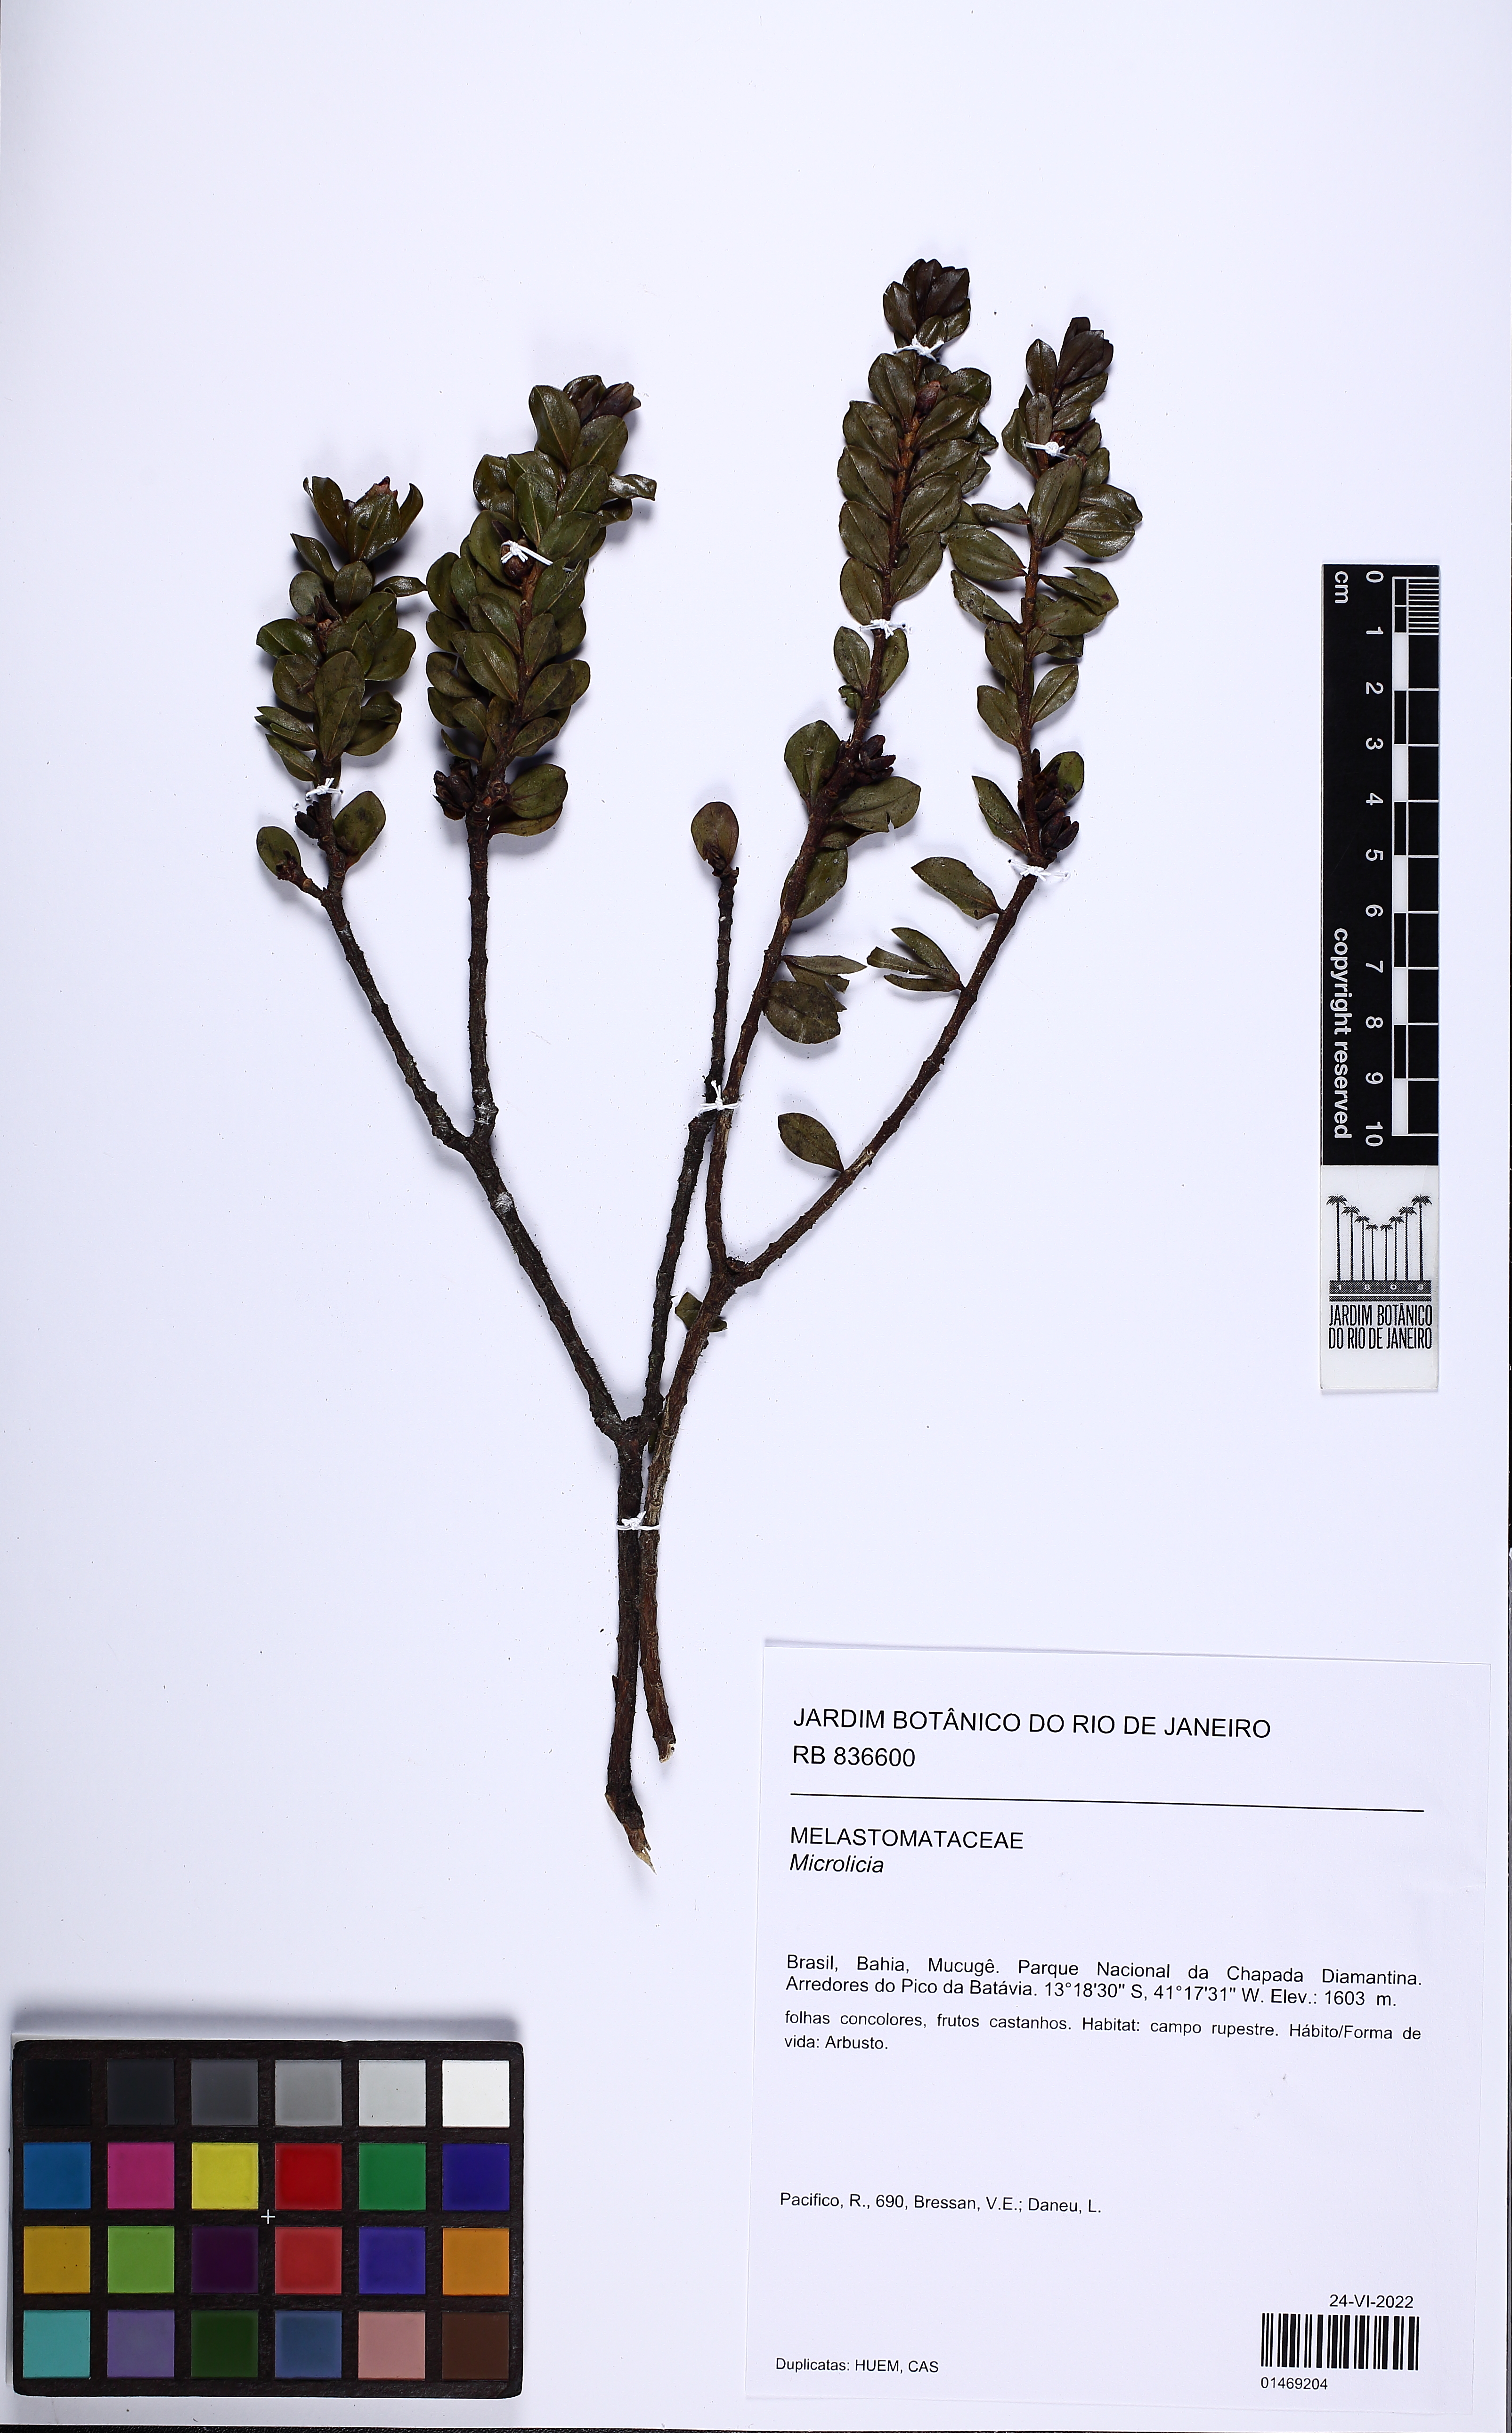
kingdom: Plantae
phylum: Tracheophyta
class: Magnoliopsida
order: Myrtales
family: Melastomataceae
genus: Microlicia
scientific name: Microlicia daneui
